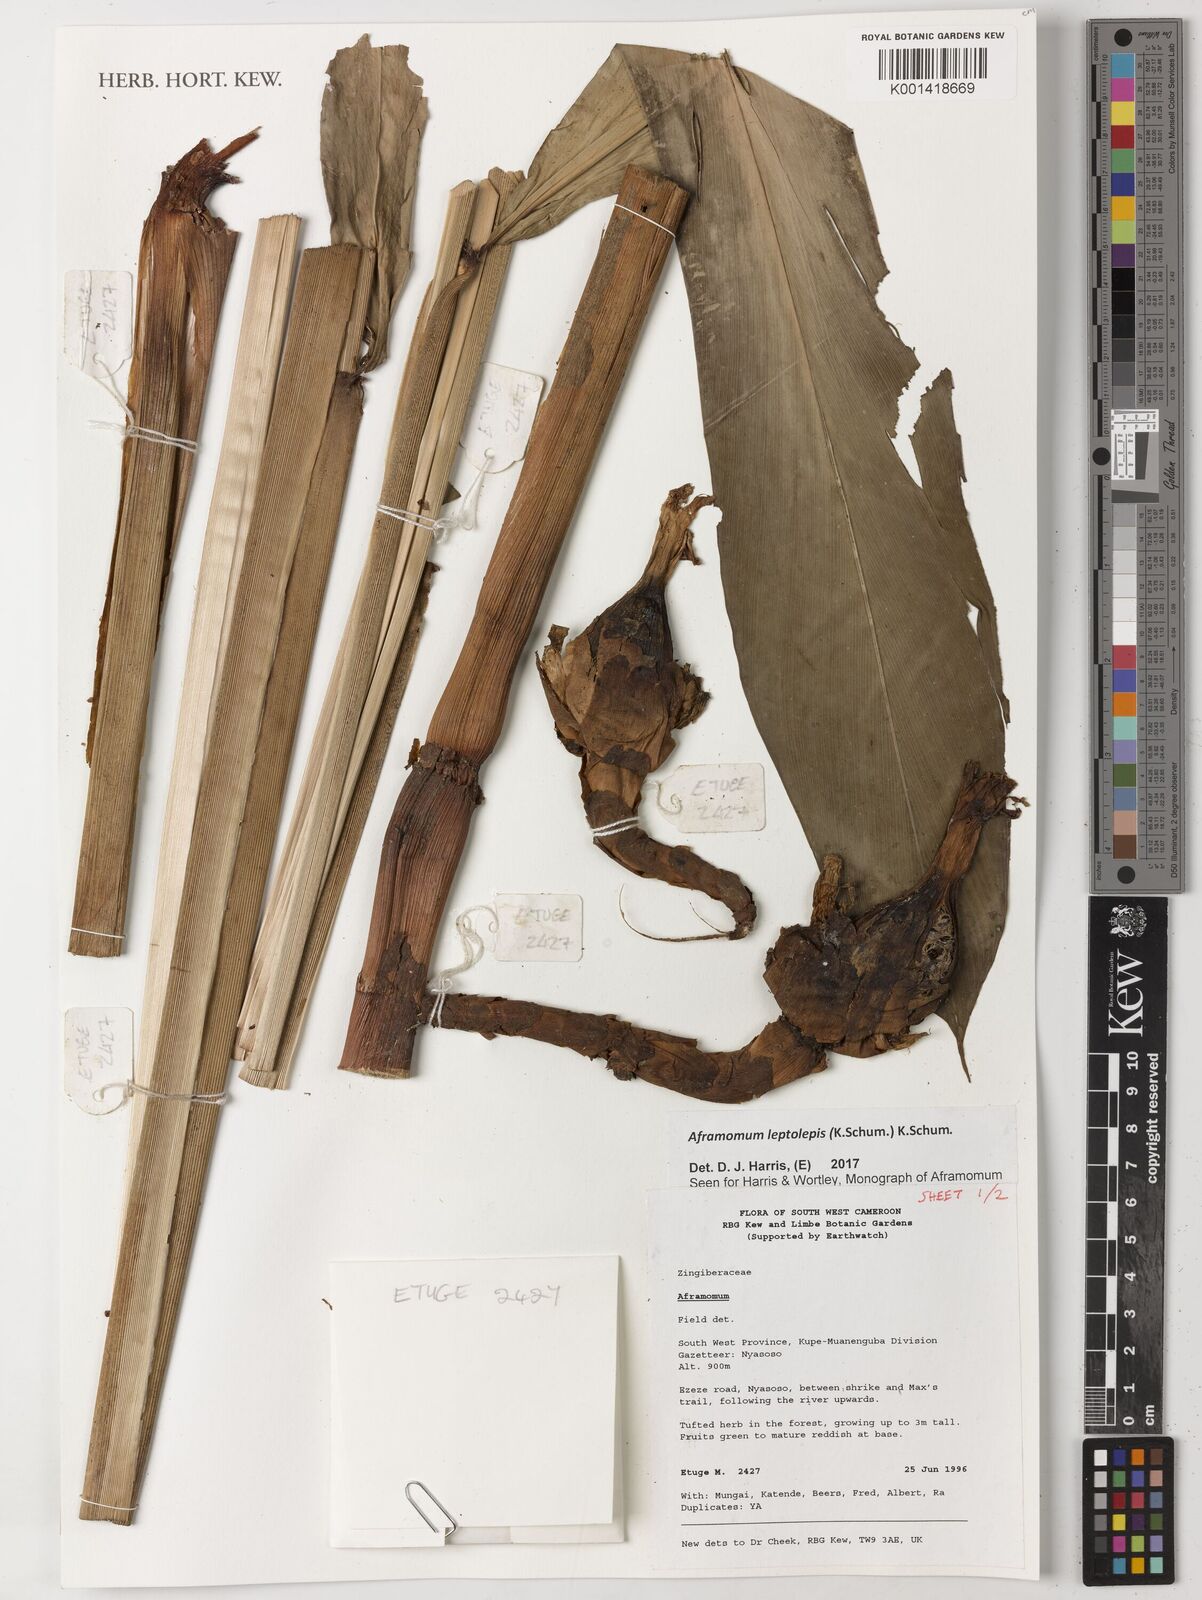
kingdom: Plantae
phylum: Tracheophyta
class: Liliopsida
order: Zingiberales
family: Zingiberaceae
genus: Aframomum
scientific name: Aframomum leptolepis
